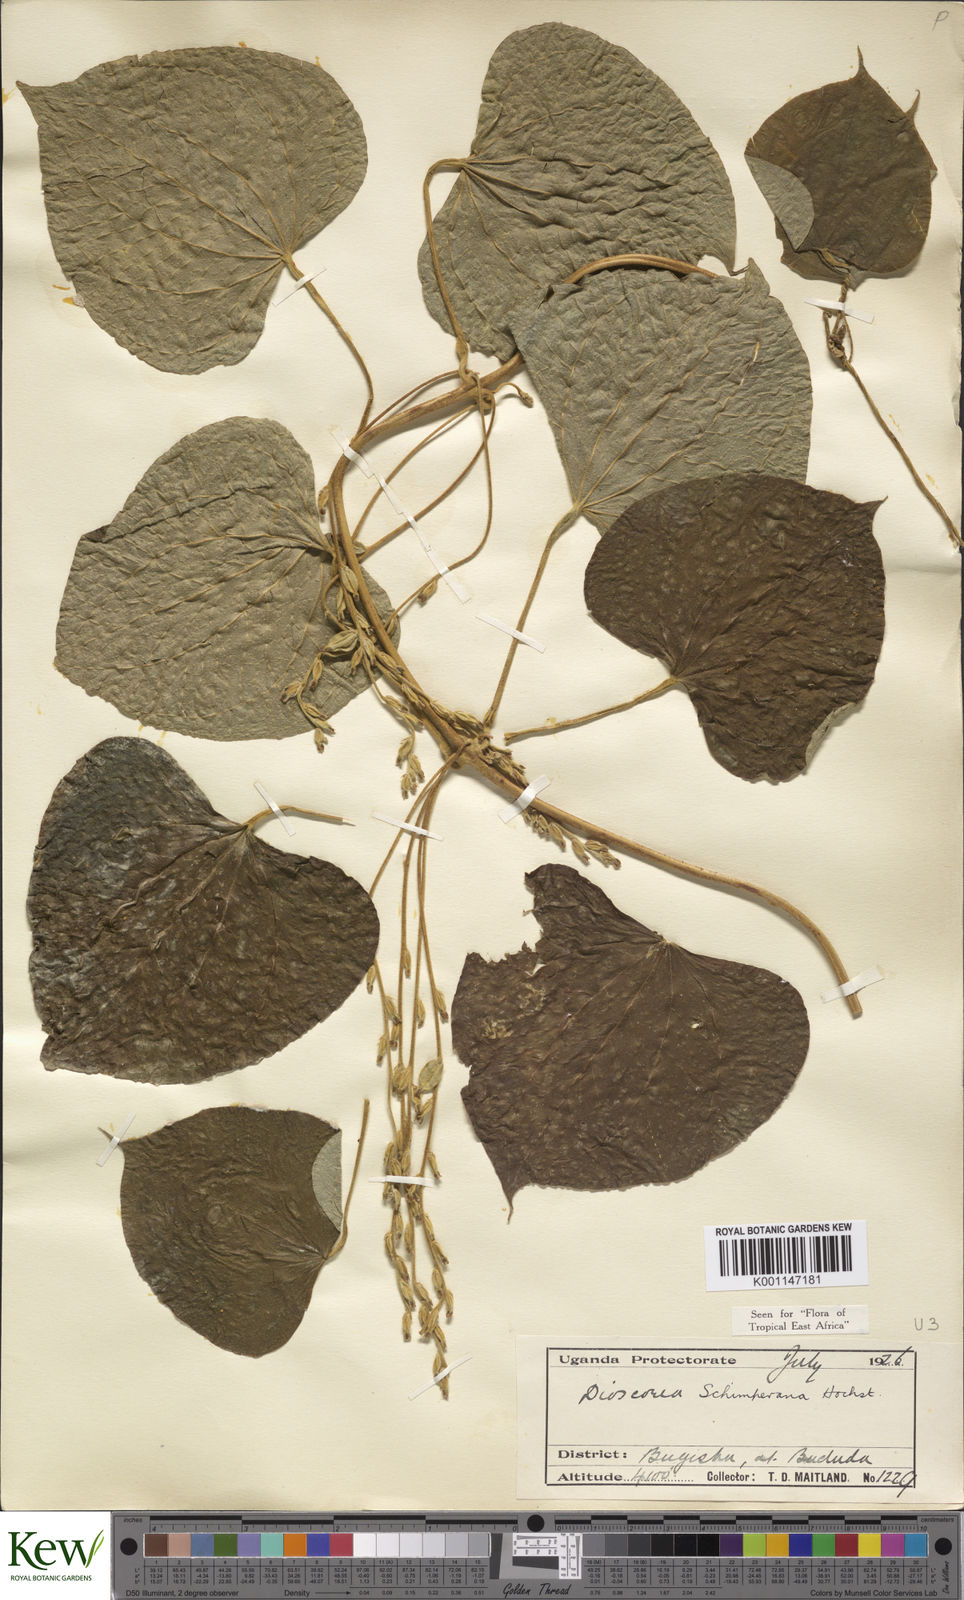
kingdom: Plantae
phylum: Tracheophyta
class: Liliopsida
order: Dioscoreales
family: Dioscoreaceae
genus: Dioscorea
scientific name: Dioscorea schimperiana
